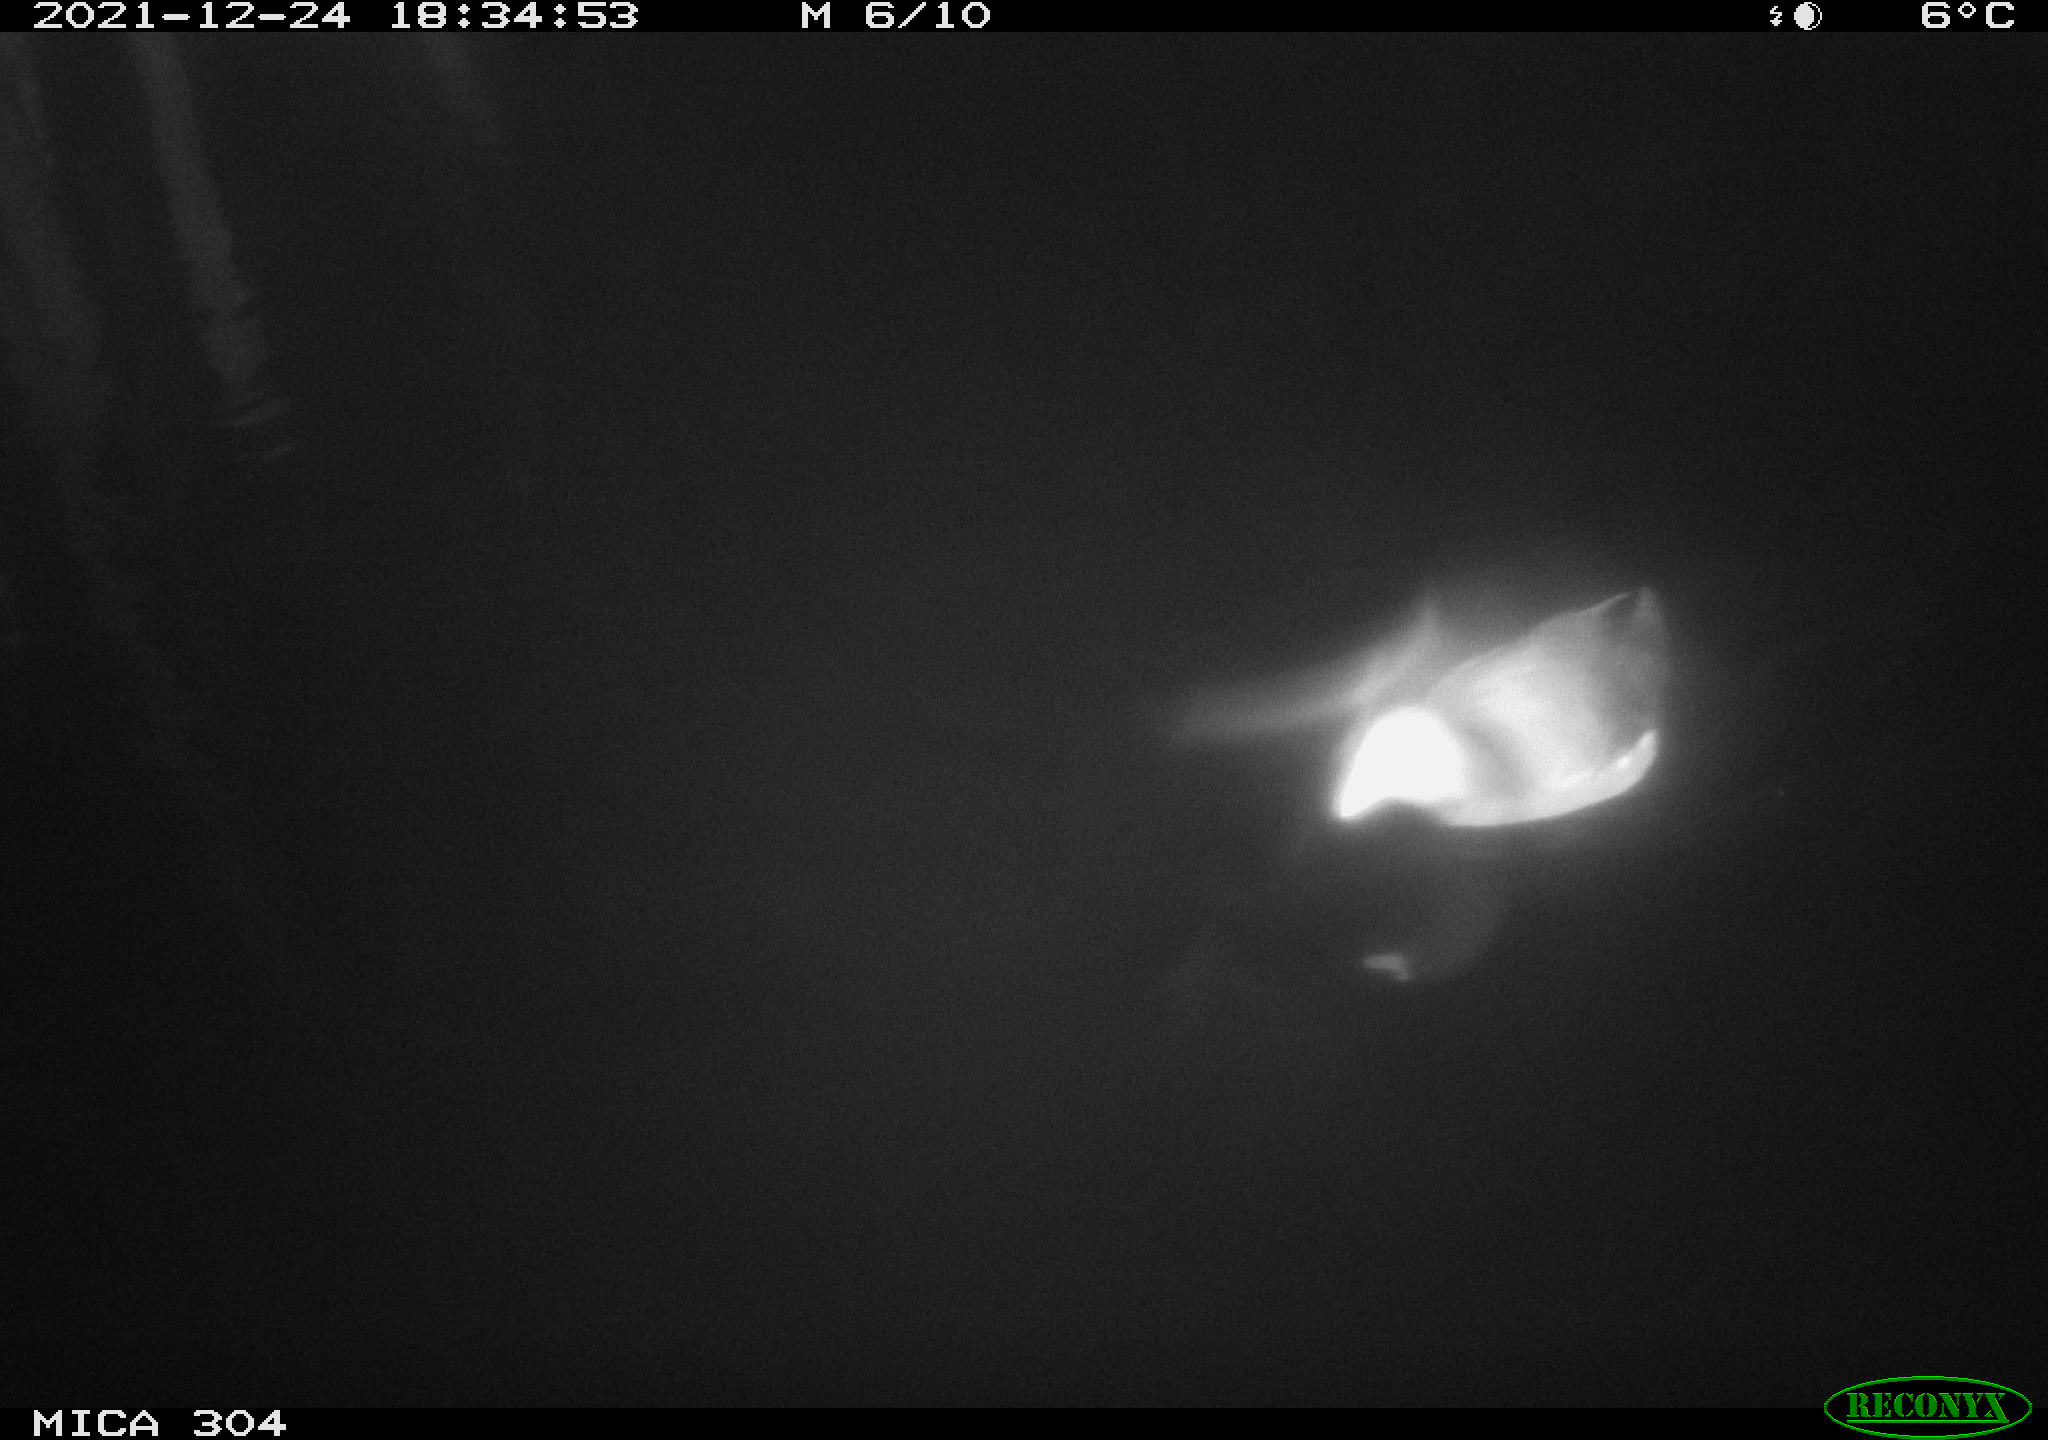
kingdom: Animalia
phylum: Chordata
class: Aves
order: Gruiformes
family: Rallidae
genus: Fulica
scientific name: Fulica atra
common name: Eurasian coot
